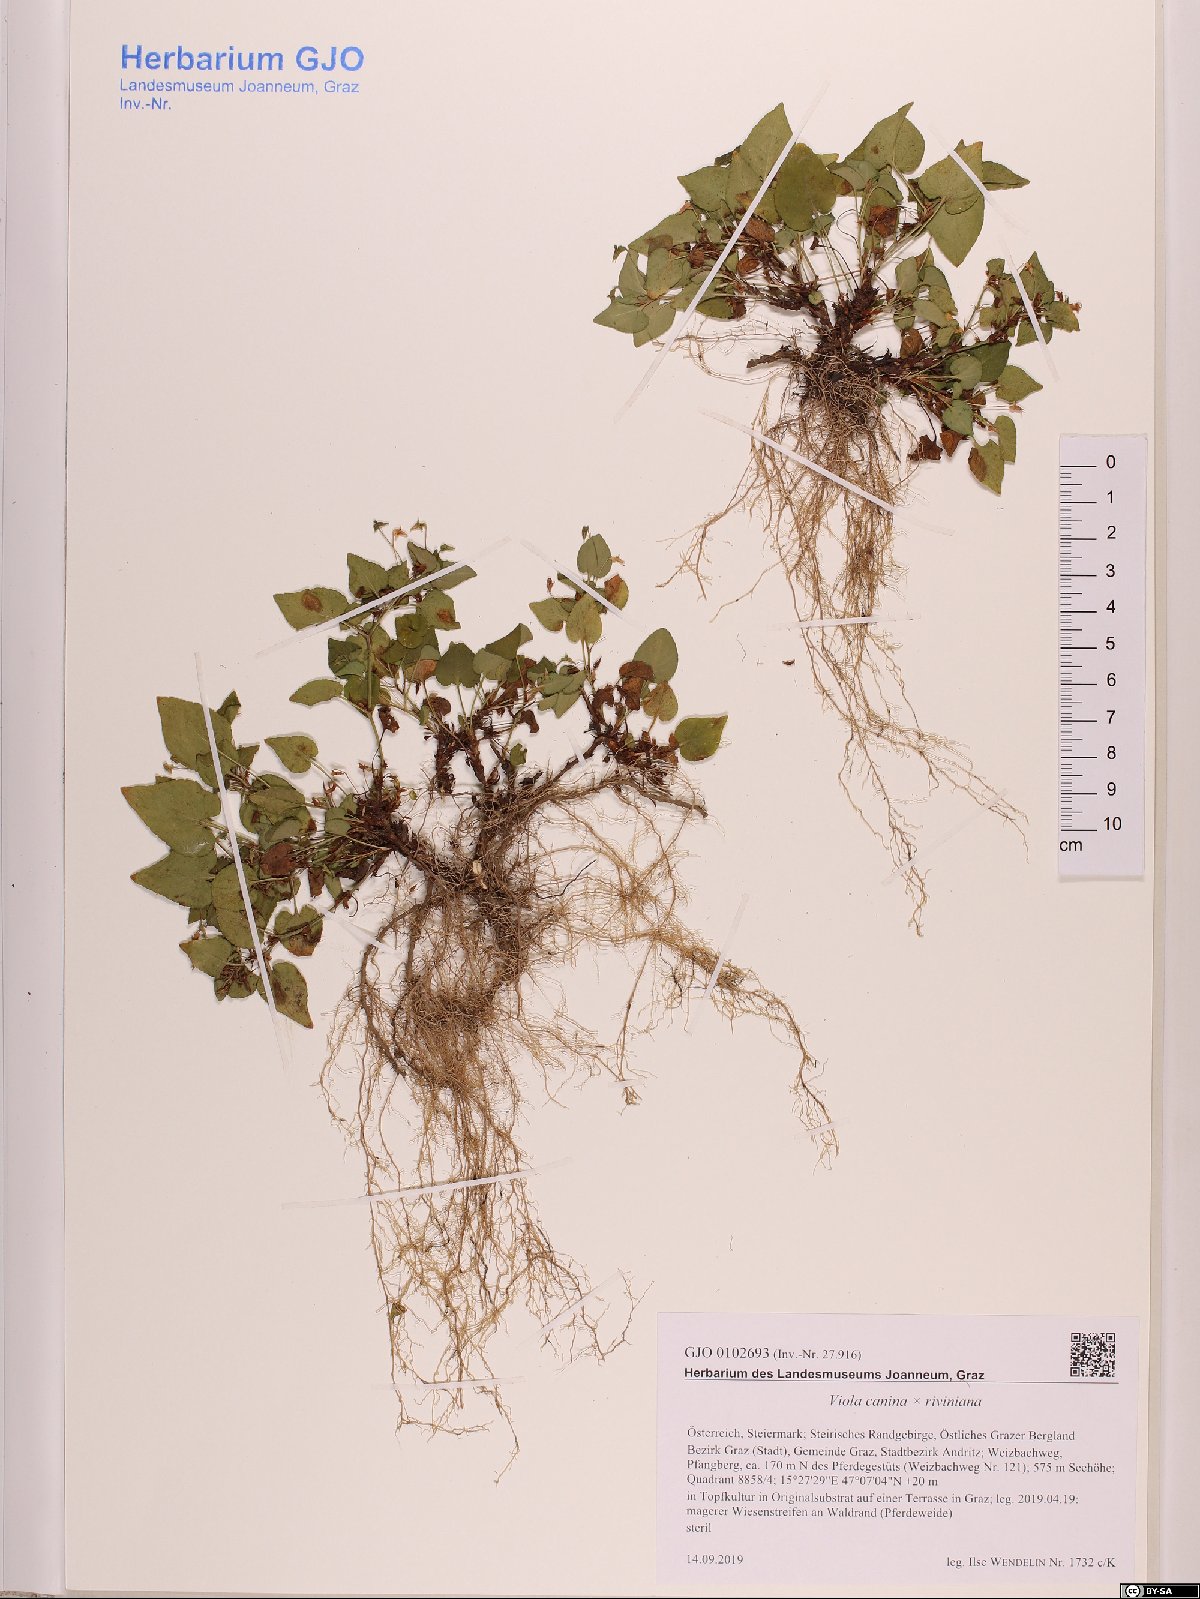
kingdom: Plantae
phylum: Tracheophyta
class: Magnoliopsida
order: Malpighiales
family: Violaceae
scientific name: Violaceae
